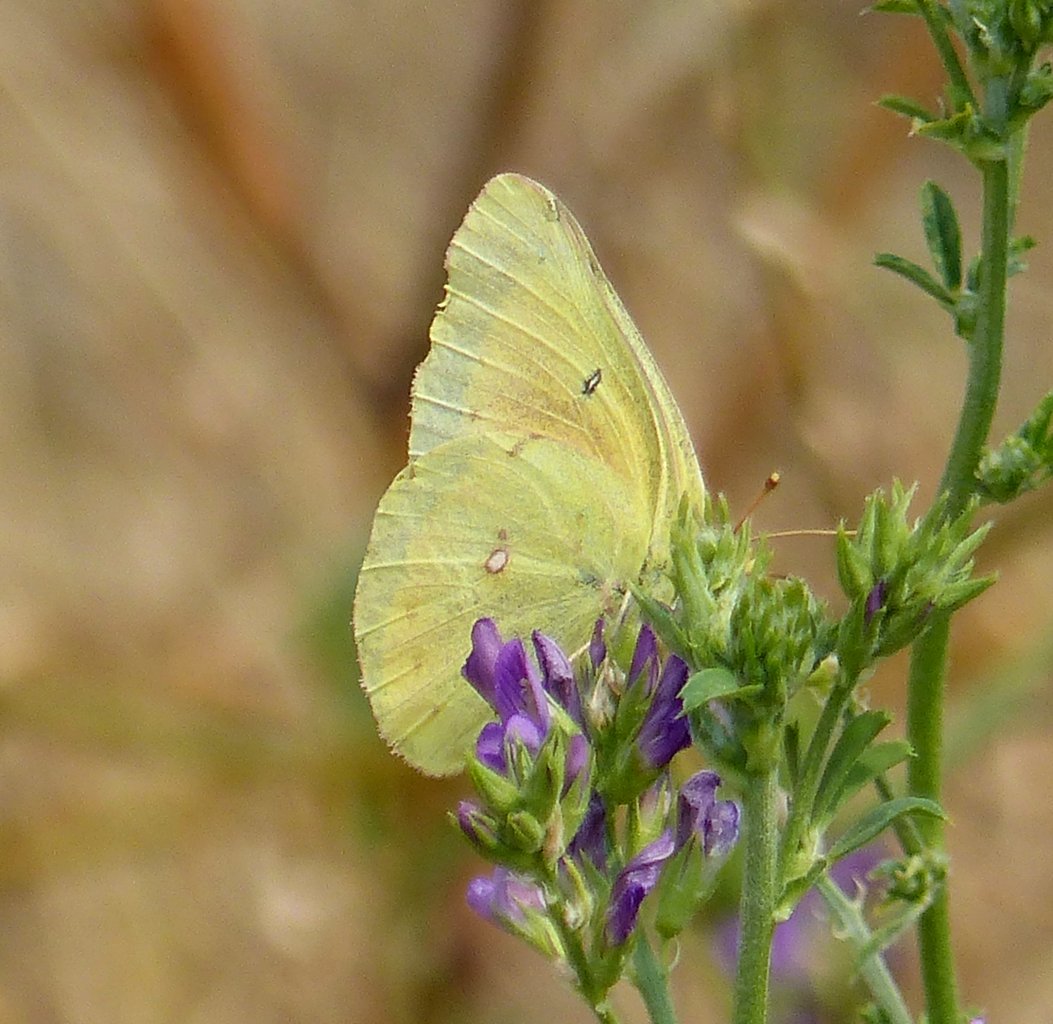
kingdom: Animalia
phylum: Arthropoda
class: Insecta
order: Lepidoptera
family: Pieridae
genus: Colias
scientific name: Colias philodice
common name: Clouded Sulphur
